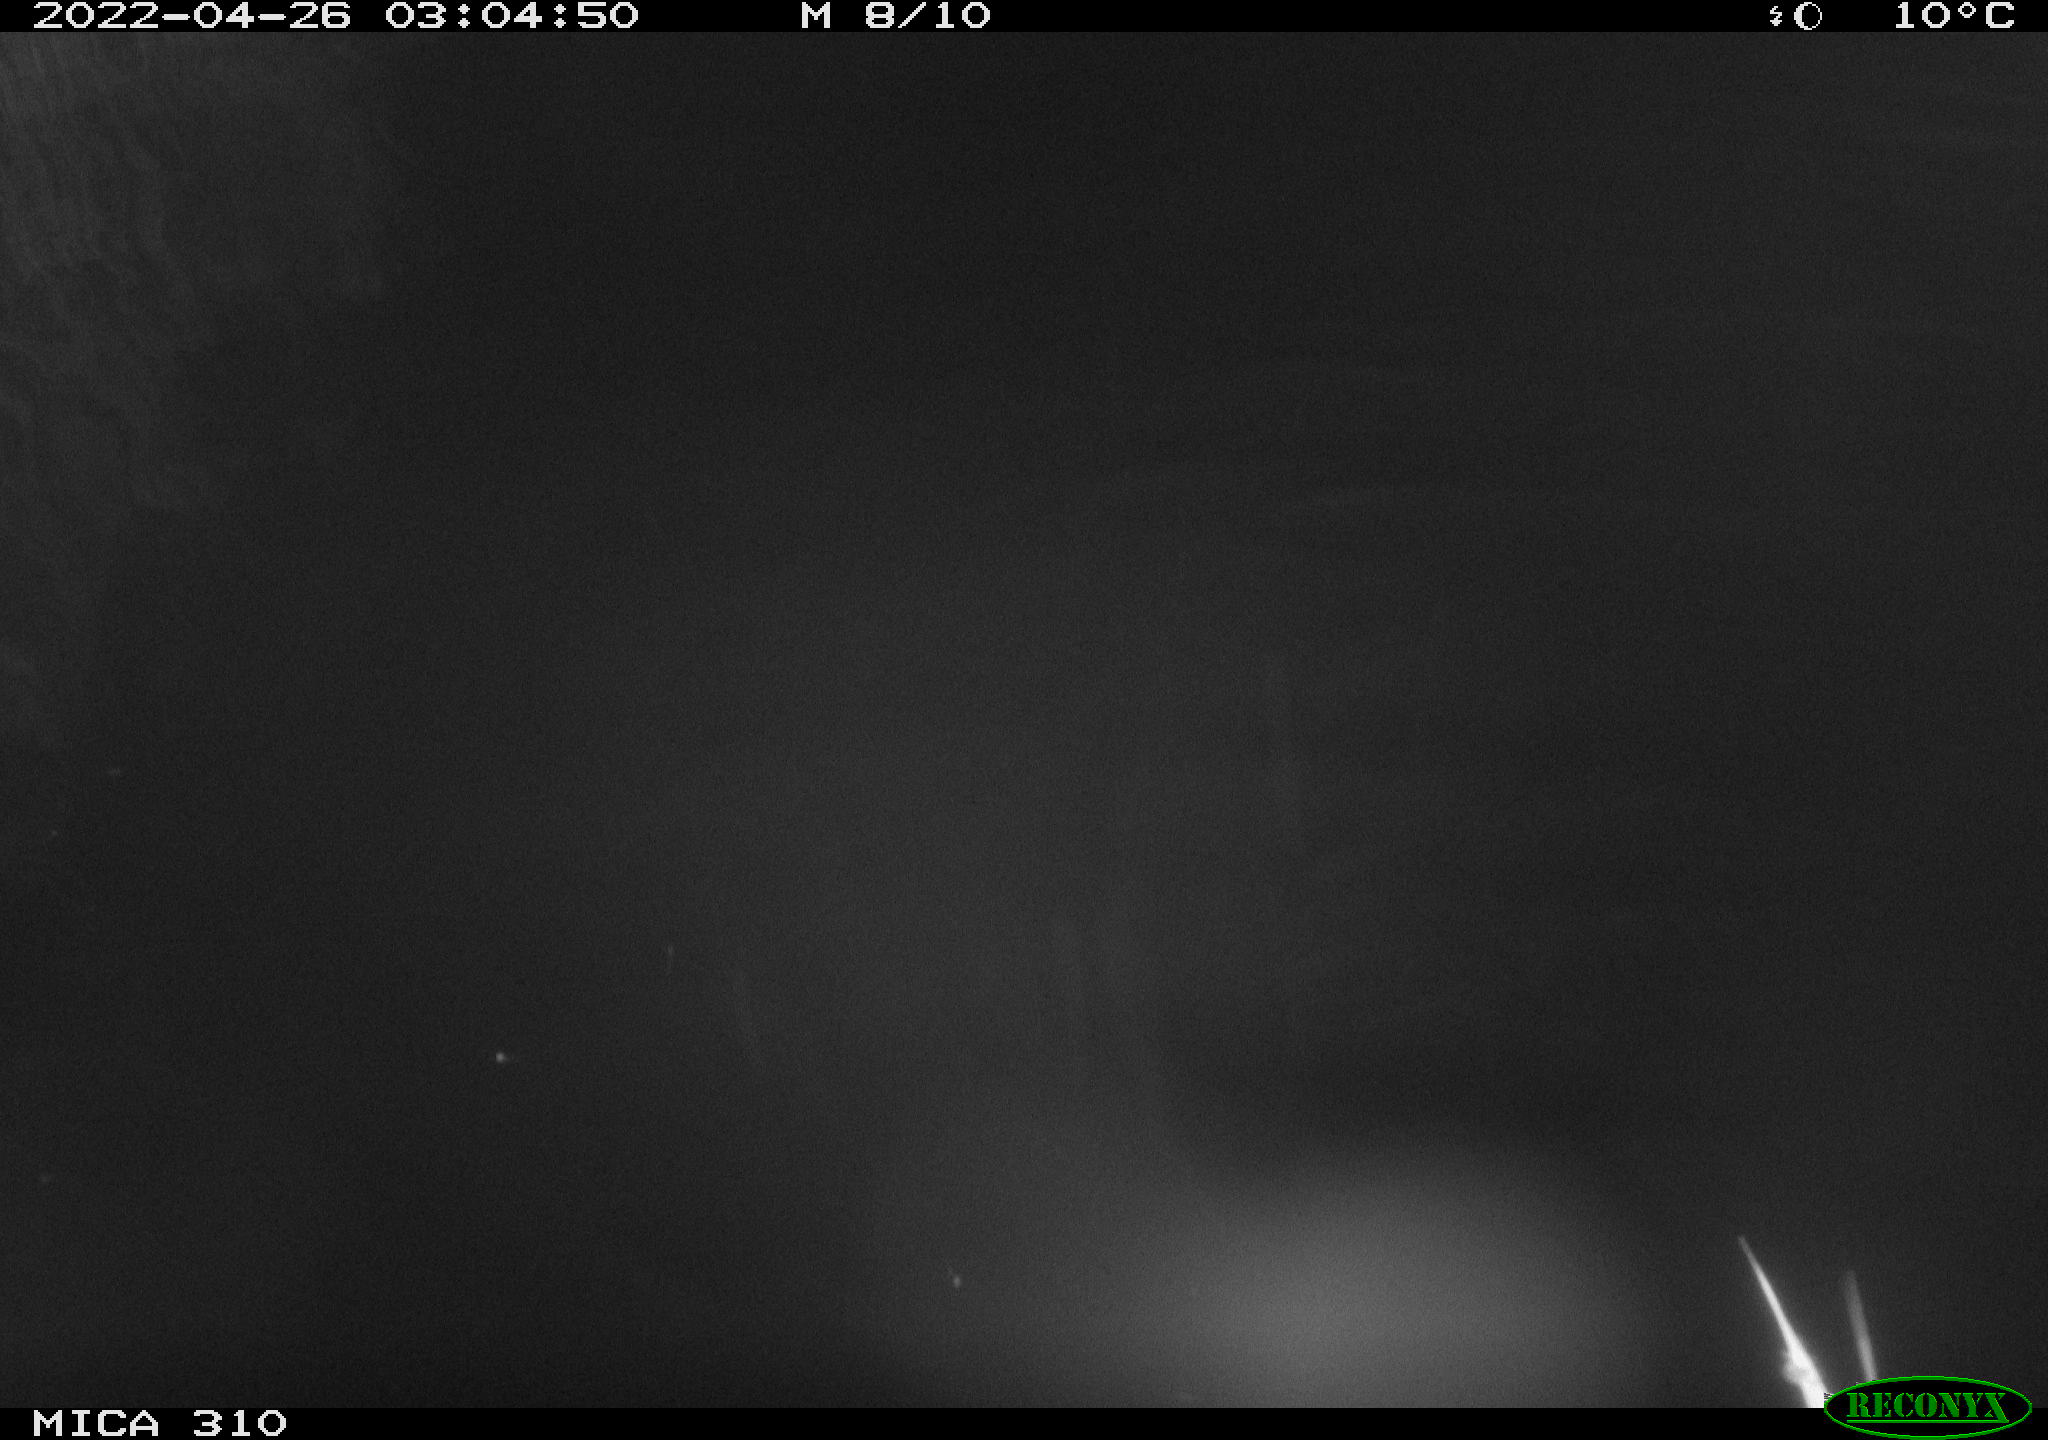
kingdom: Animalia
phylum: Chordata
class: Aves
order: Anseriformes
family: Anatidae
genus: Anas
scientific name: Anas platyrhynchos
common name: Mallard
